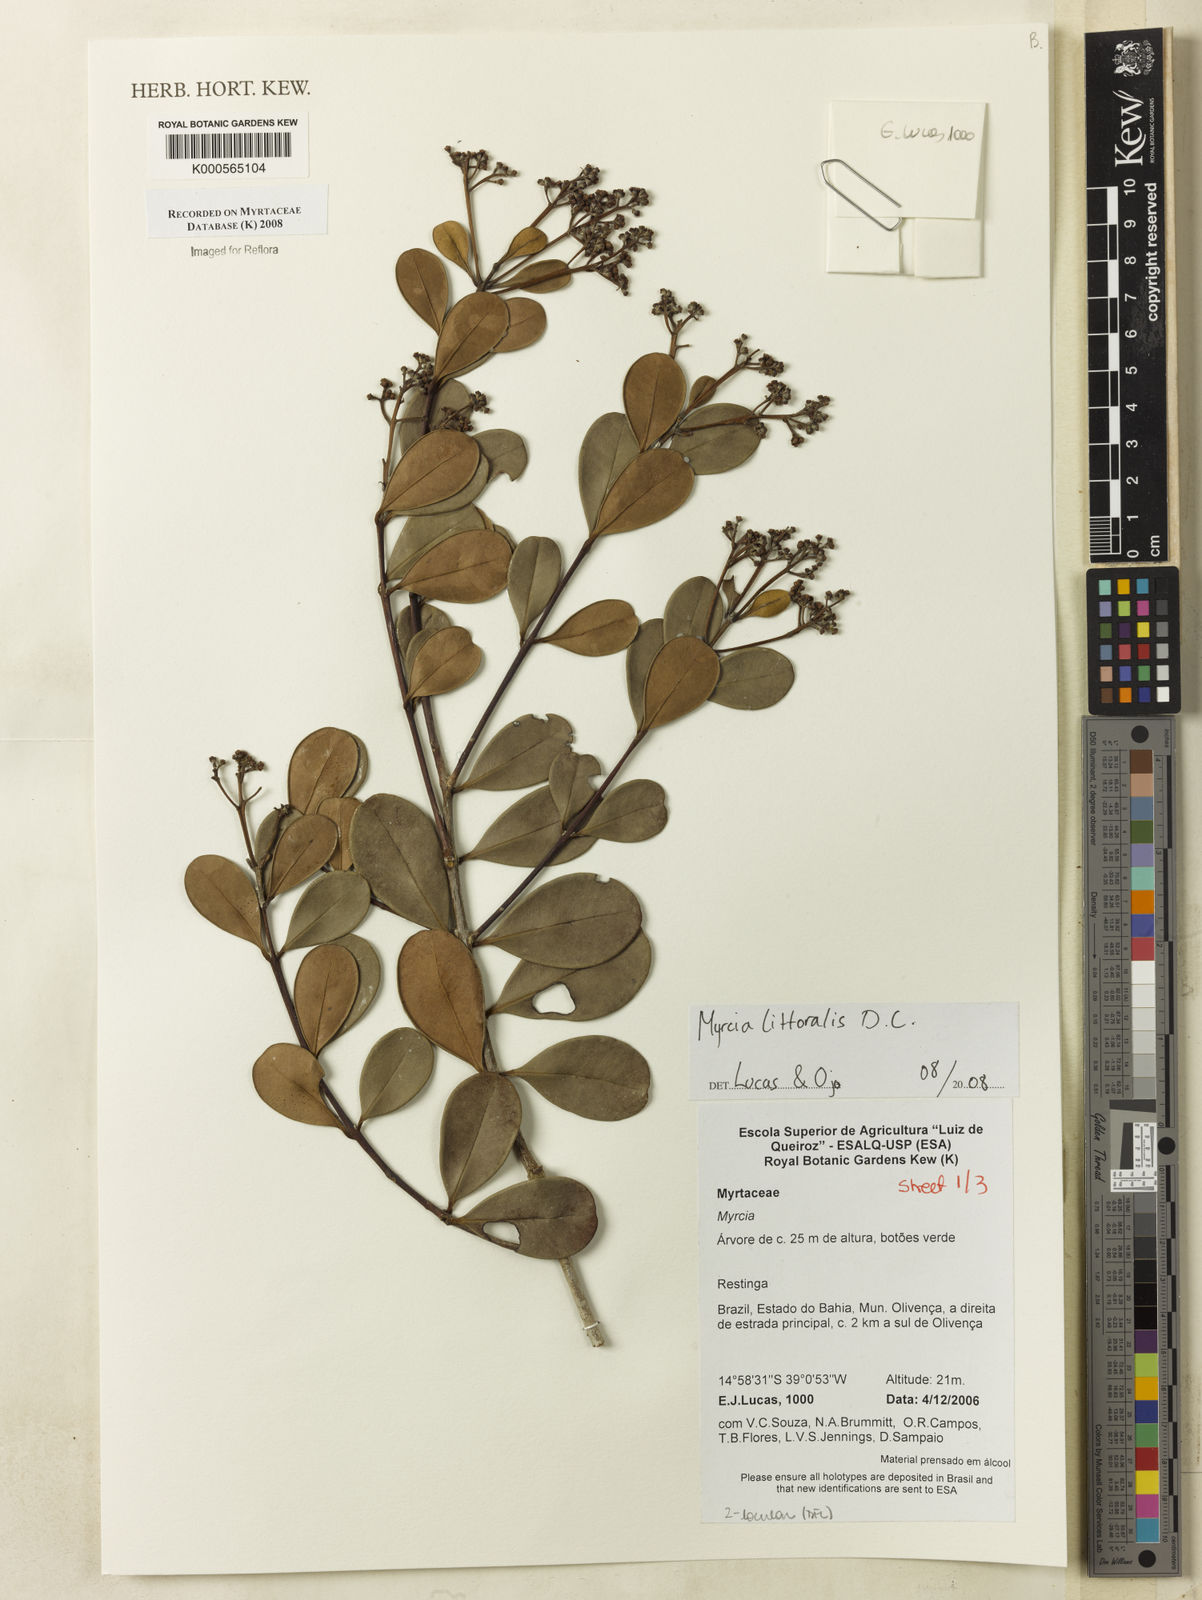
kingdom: Plantae
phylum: Tracheophyta
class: Magnoliopsida
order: Myrtales
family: Myrtaceae
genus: Myrcia
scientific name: Myrcia littoralis
